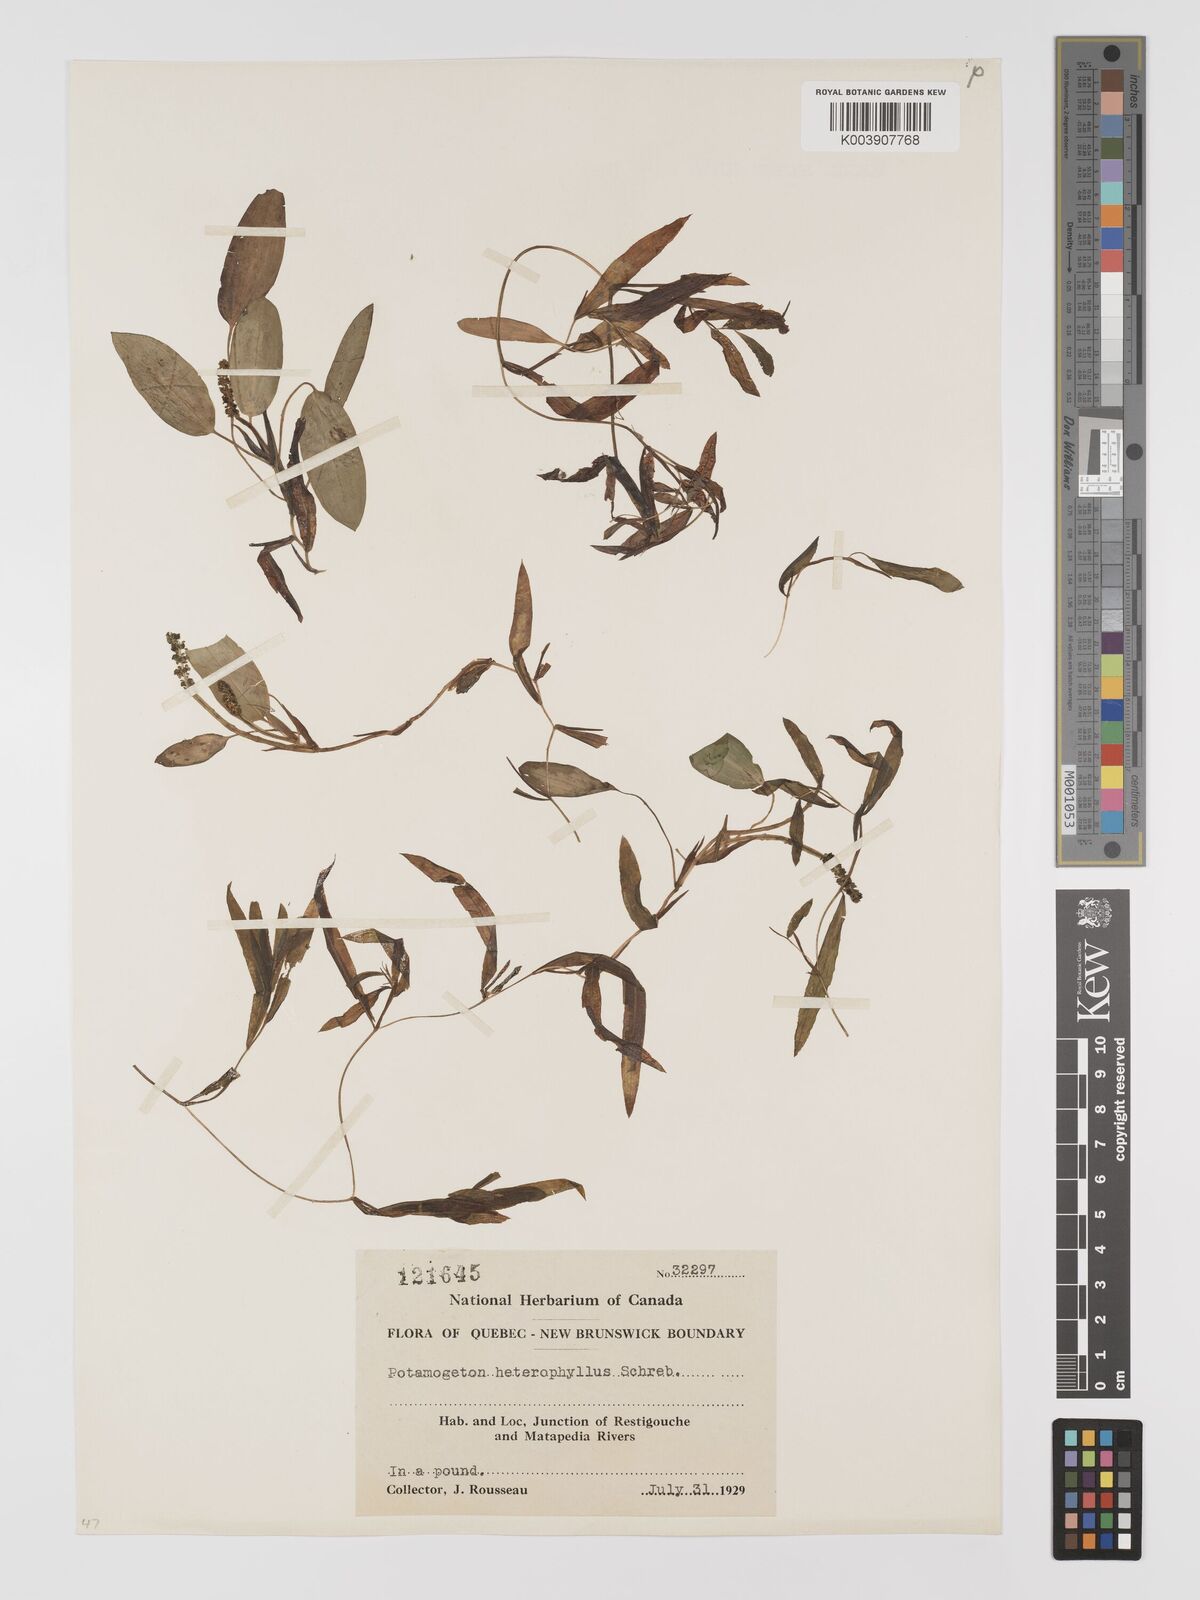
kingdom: Plantae
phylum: Tracheophyta
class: Liliopsida
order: Alismatales
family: Potamogetonaceae
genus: Potamogeton
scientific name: Potamogeton gramineus
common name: Various-leaved pondweed
